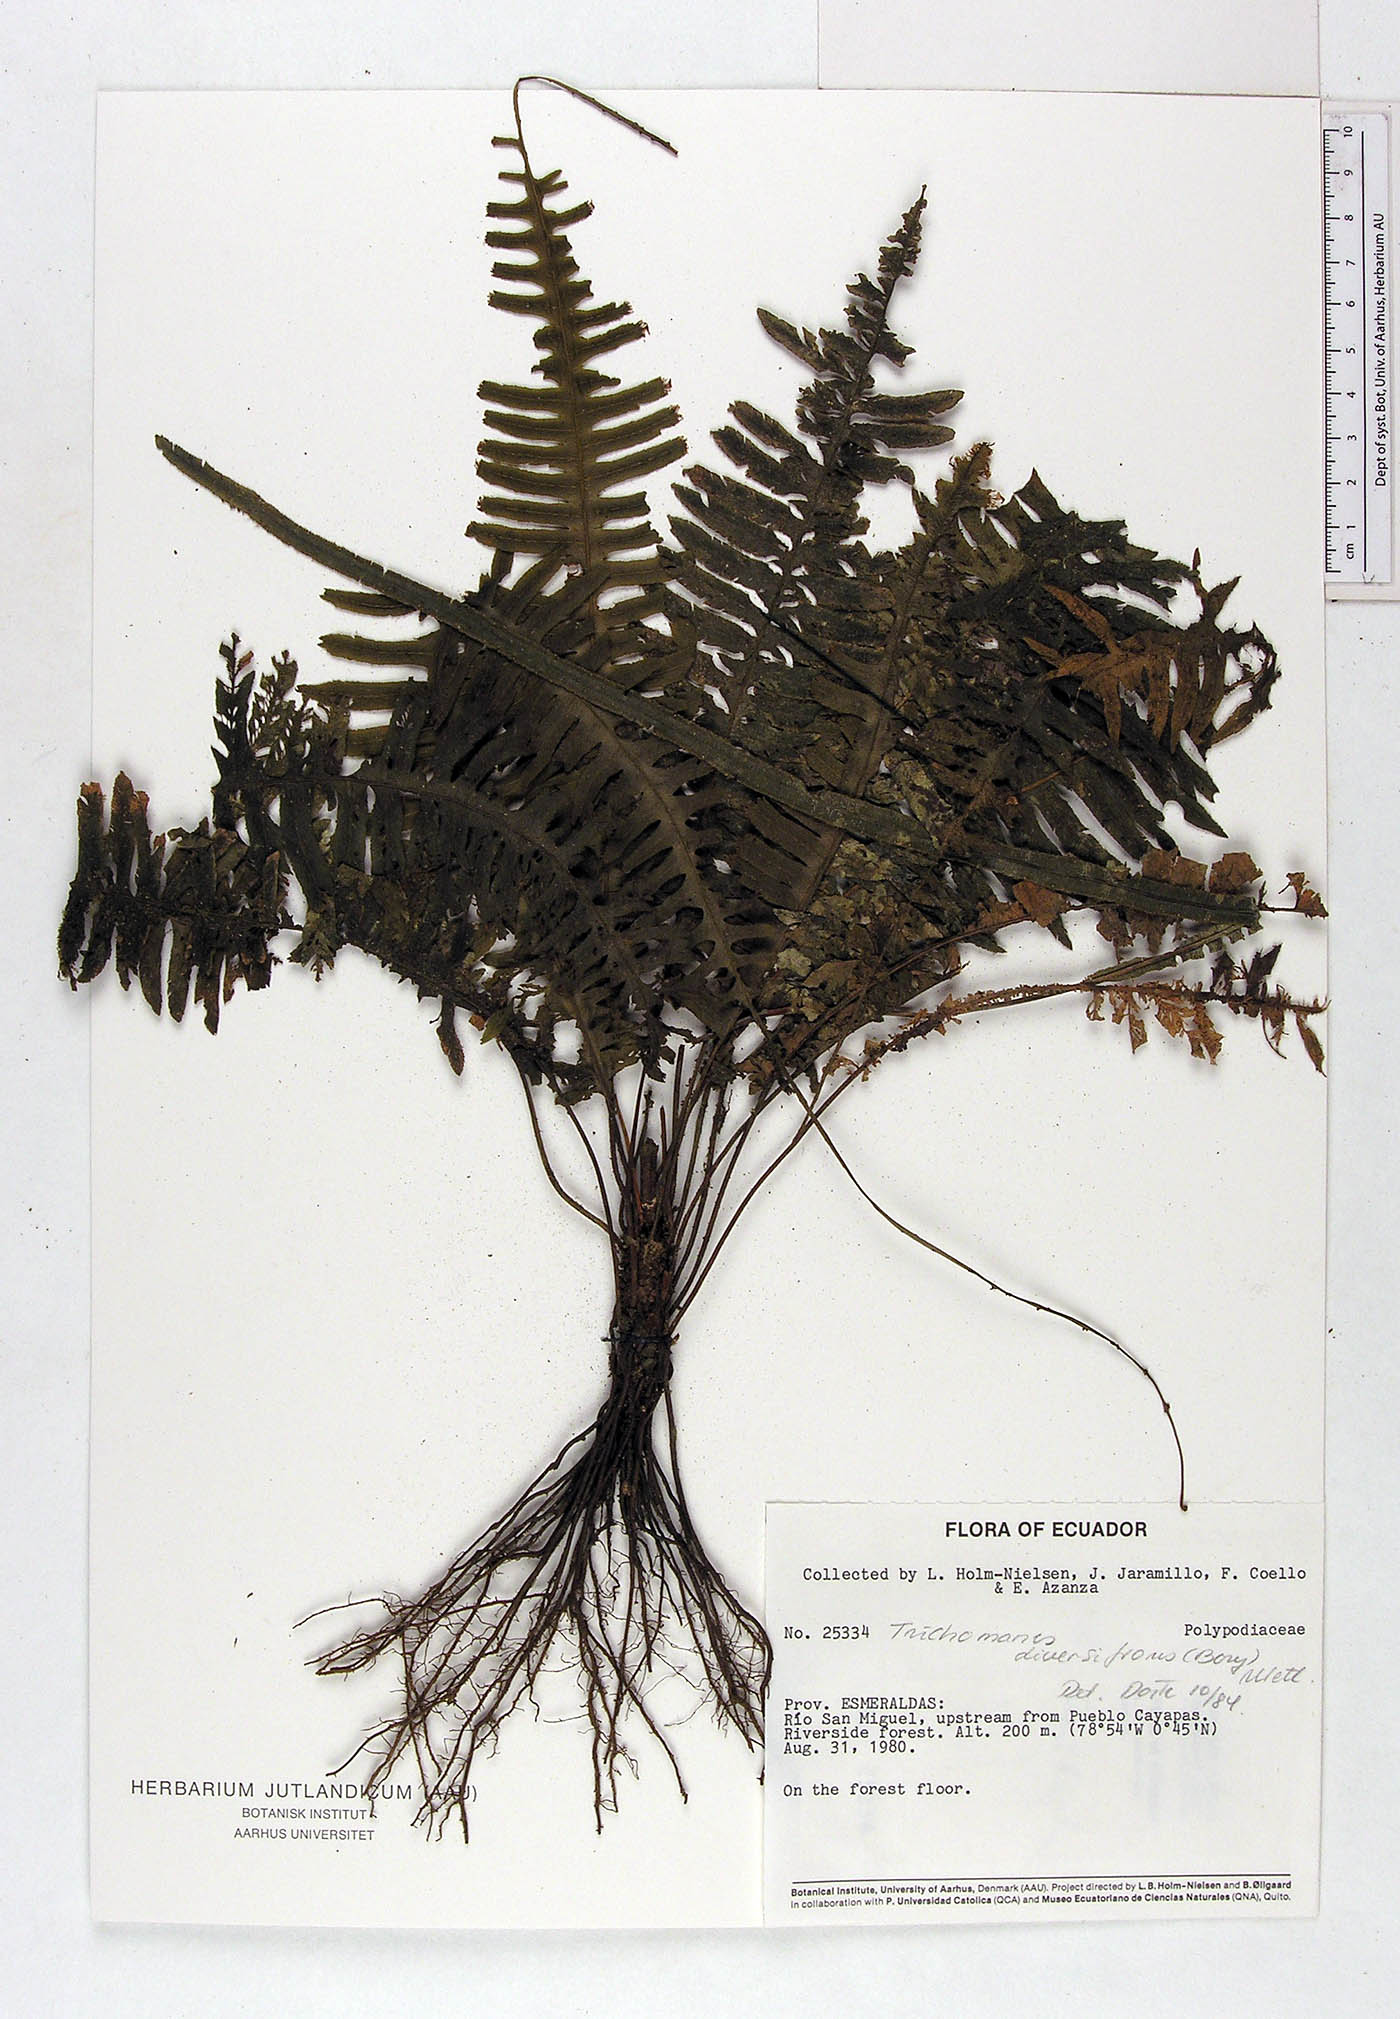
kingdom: Plantae
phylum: Tracheophyta
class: Polypodiopsida
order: Hymenophyllales
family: Hymenophyllaceae
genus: Trichomanes
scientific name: Trichomanes diversifrons
